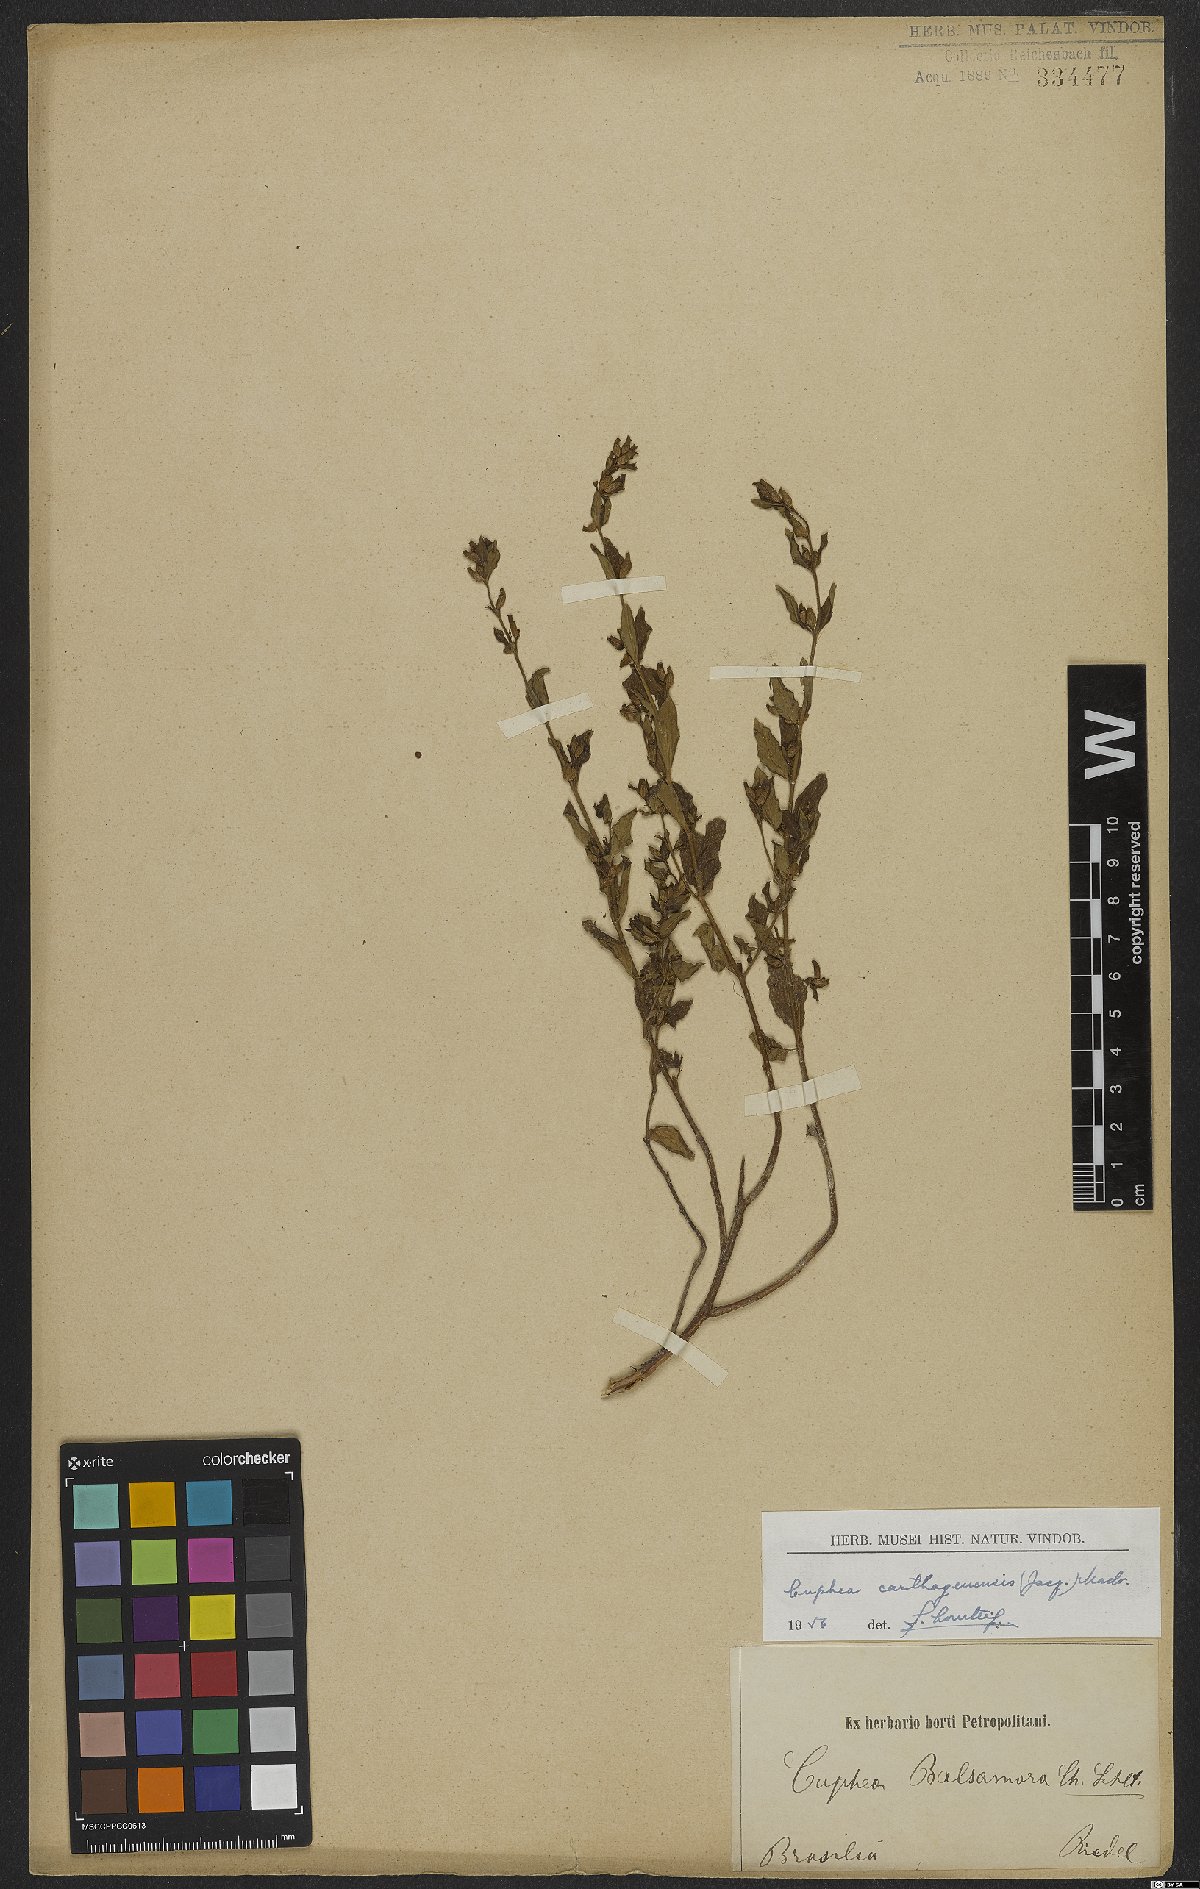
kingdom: Plantae
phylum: Tracheophyta
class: Magnoliopsida
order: Myrtales
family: Lythraceae
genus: Cuphea
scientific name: Cuphea carthagenensis
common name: Colombian waxweed
